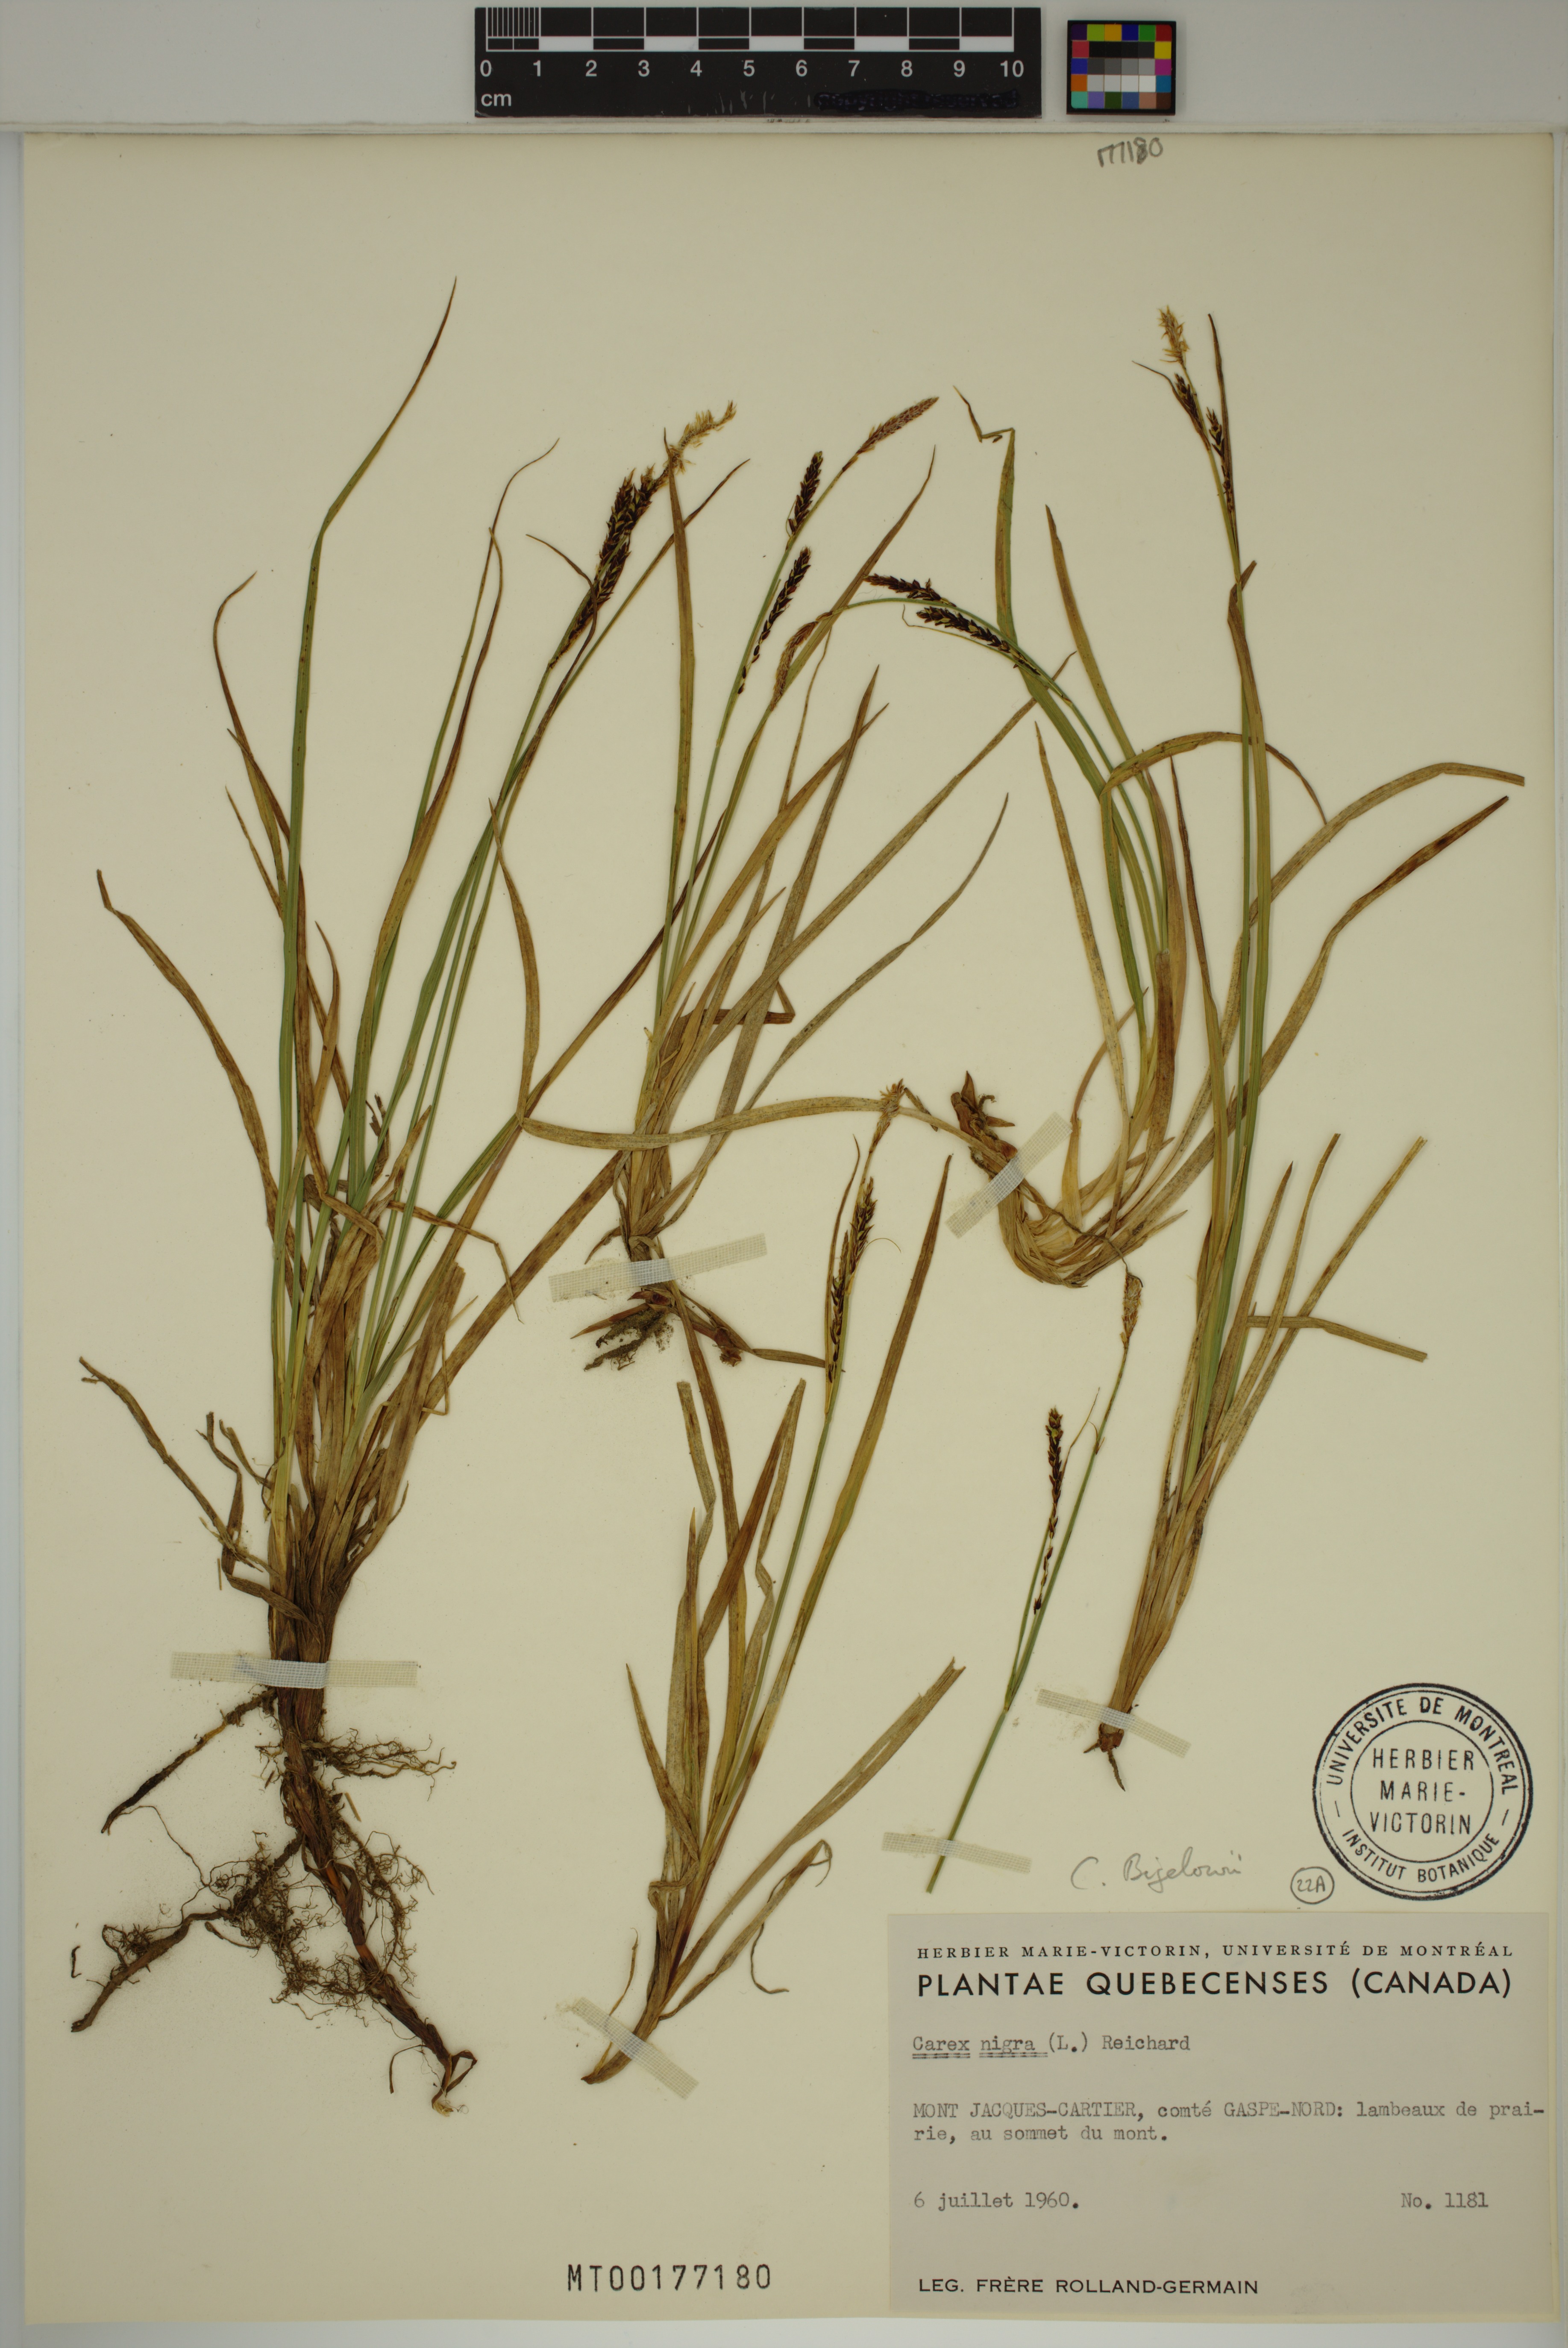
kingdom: Plantae
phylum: Tracheophyta
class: Liliopsida
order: Poales
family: Cyperaceae
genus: Carex
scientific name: Carex bigelowii
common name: Stiff sedge
